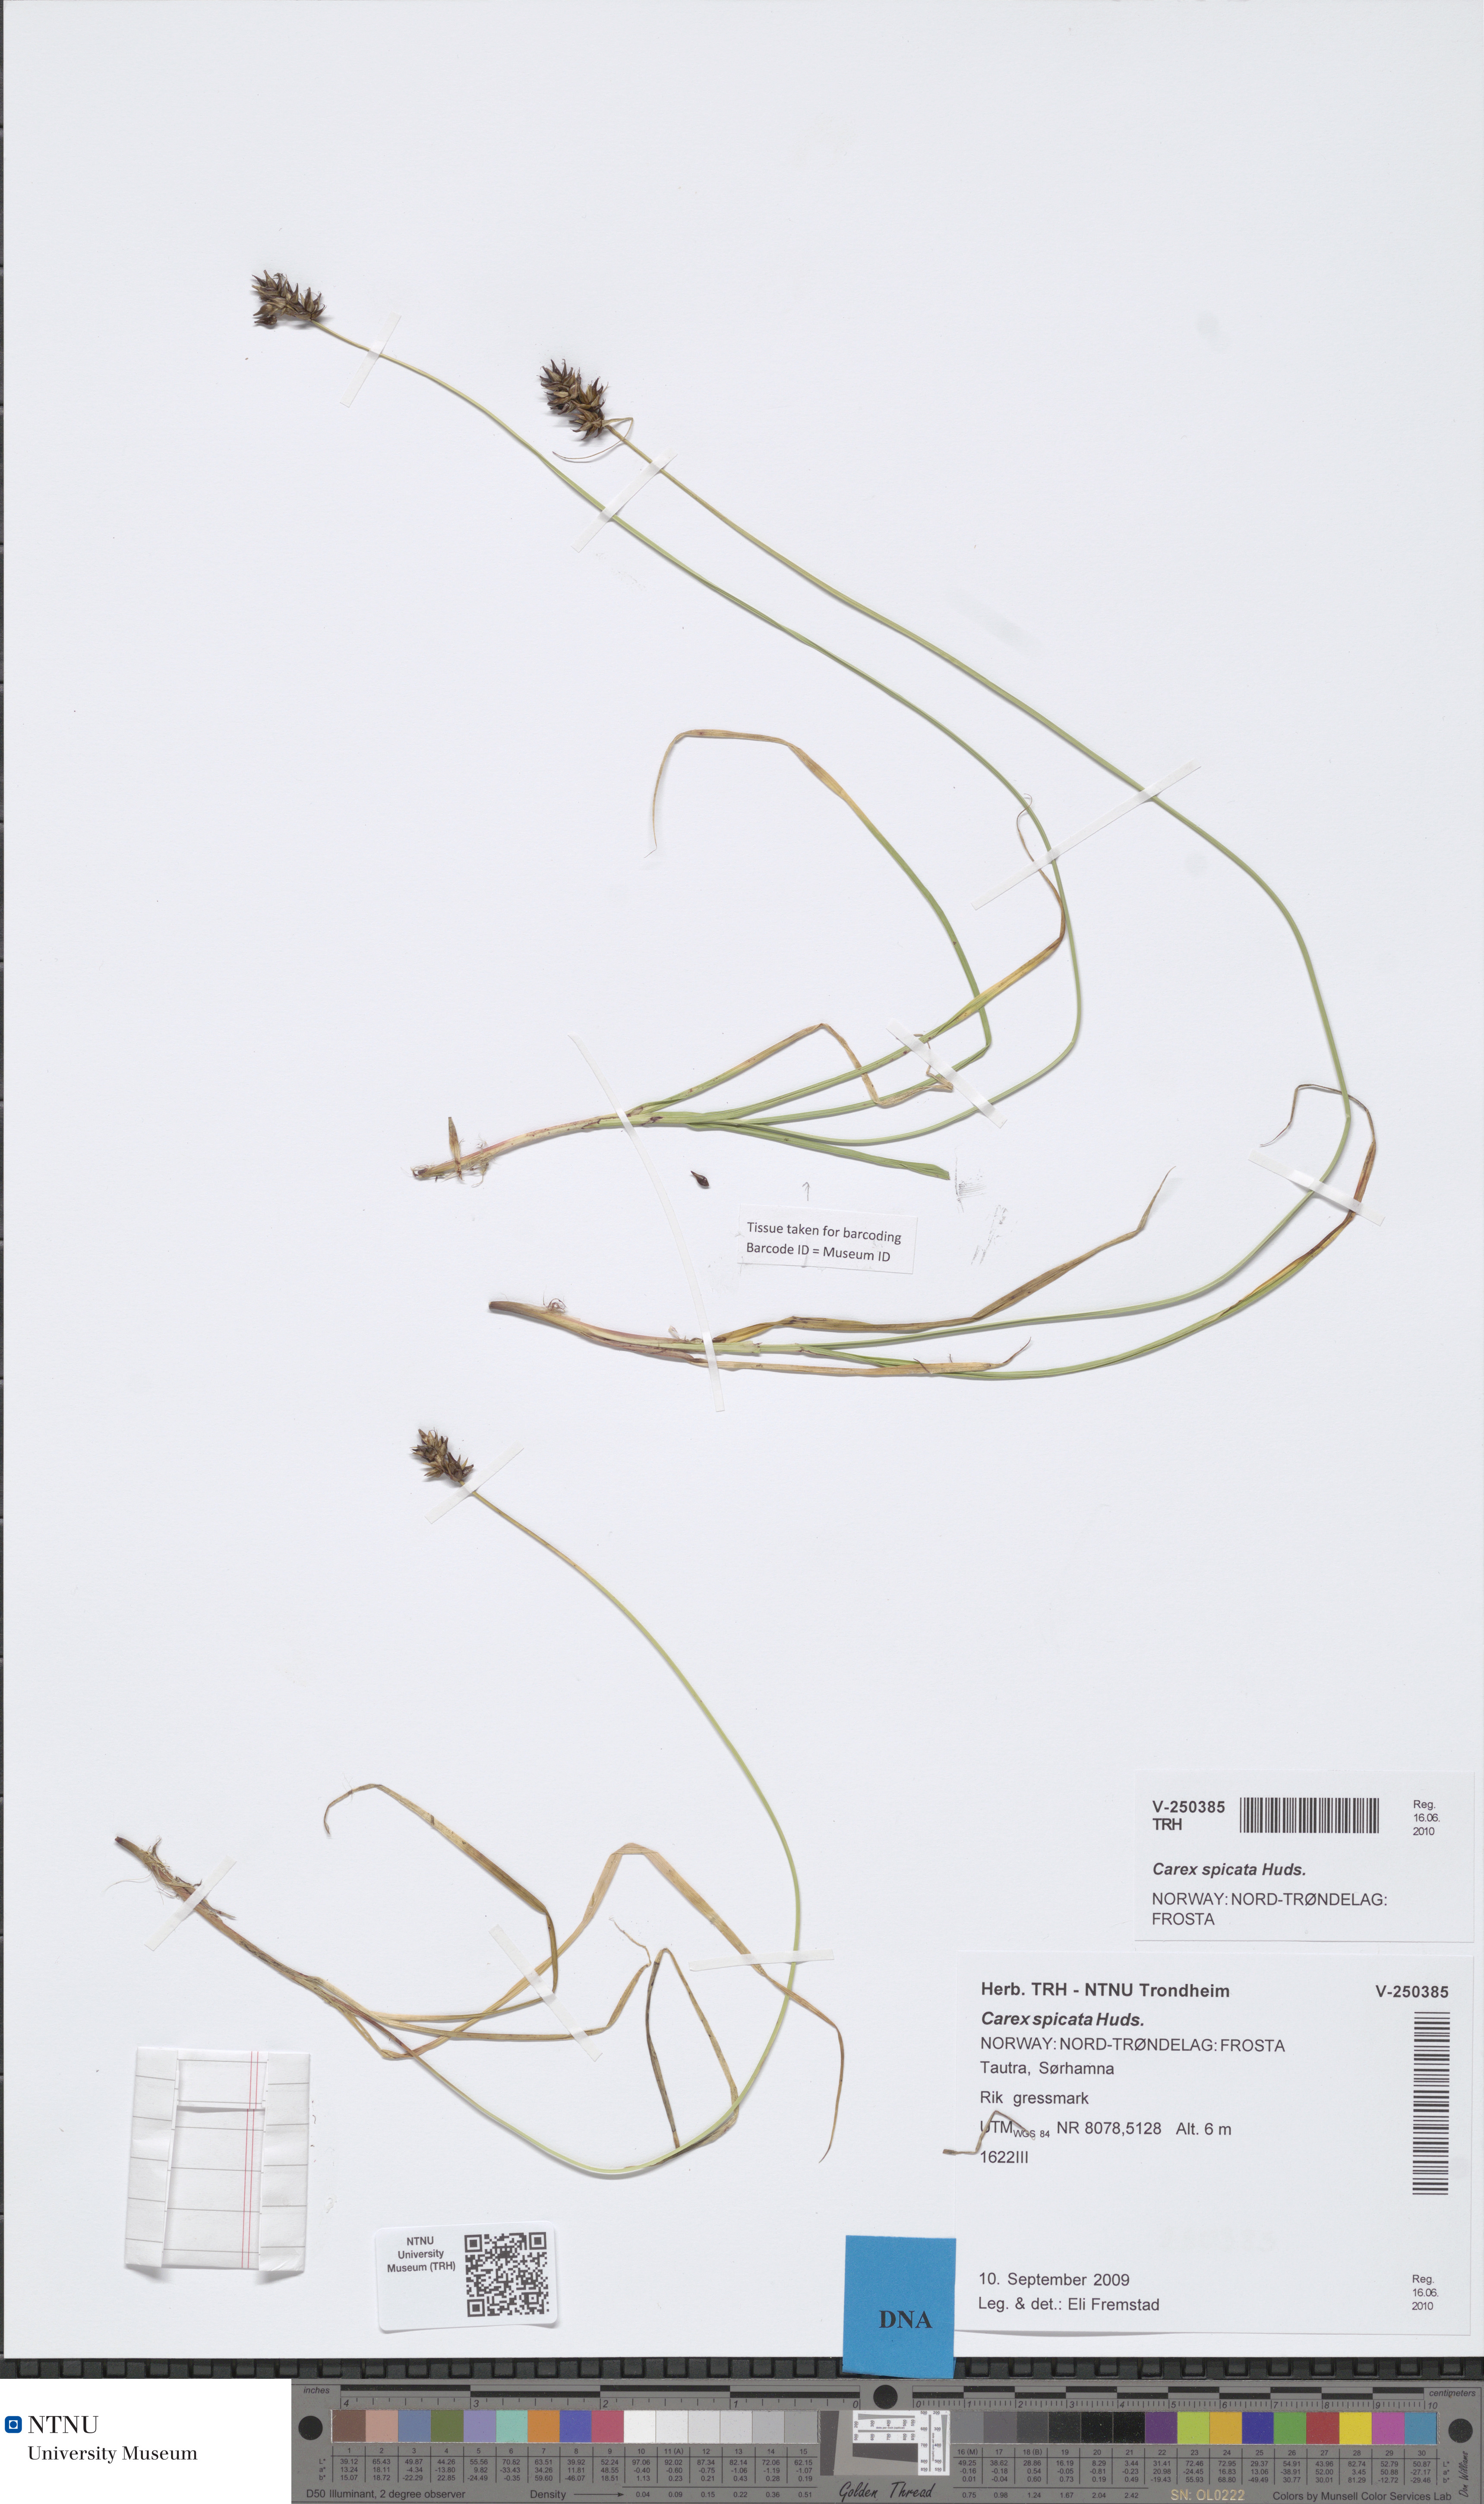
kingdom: Plantae
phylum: Tracheophyta
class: Liliopsida
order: Poales
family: Cyperaceae
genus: Carex
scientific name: Carex spicata
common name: Spiked sedge
